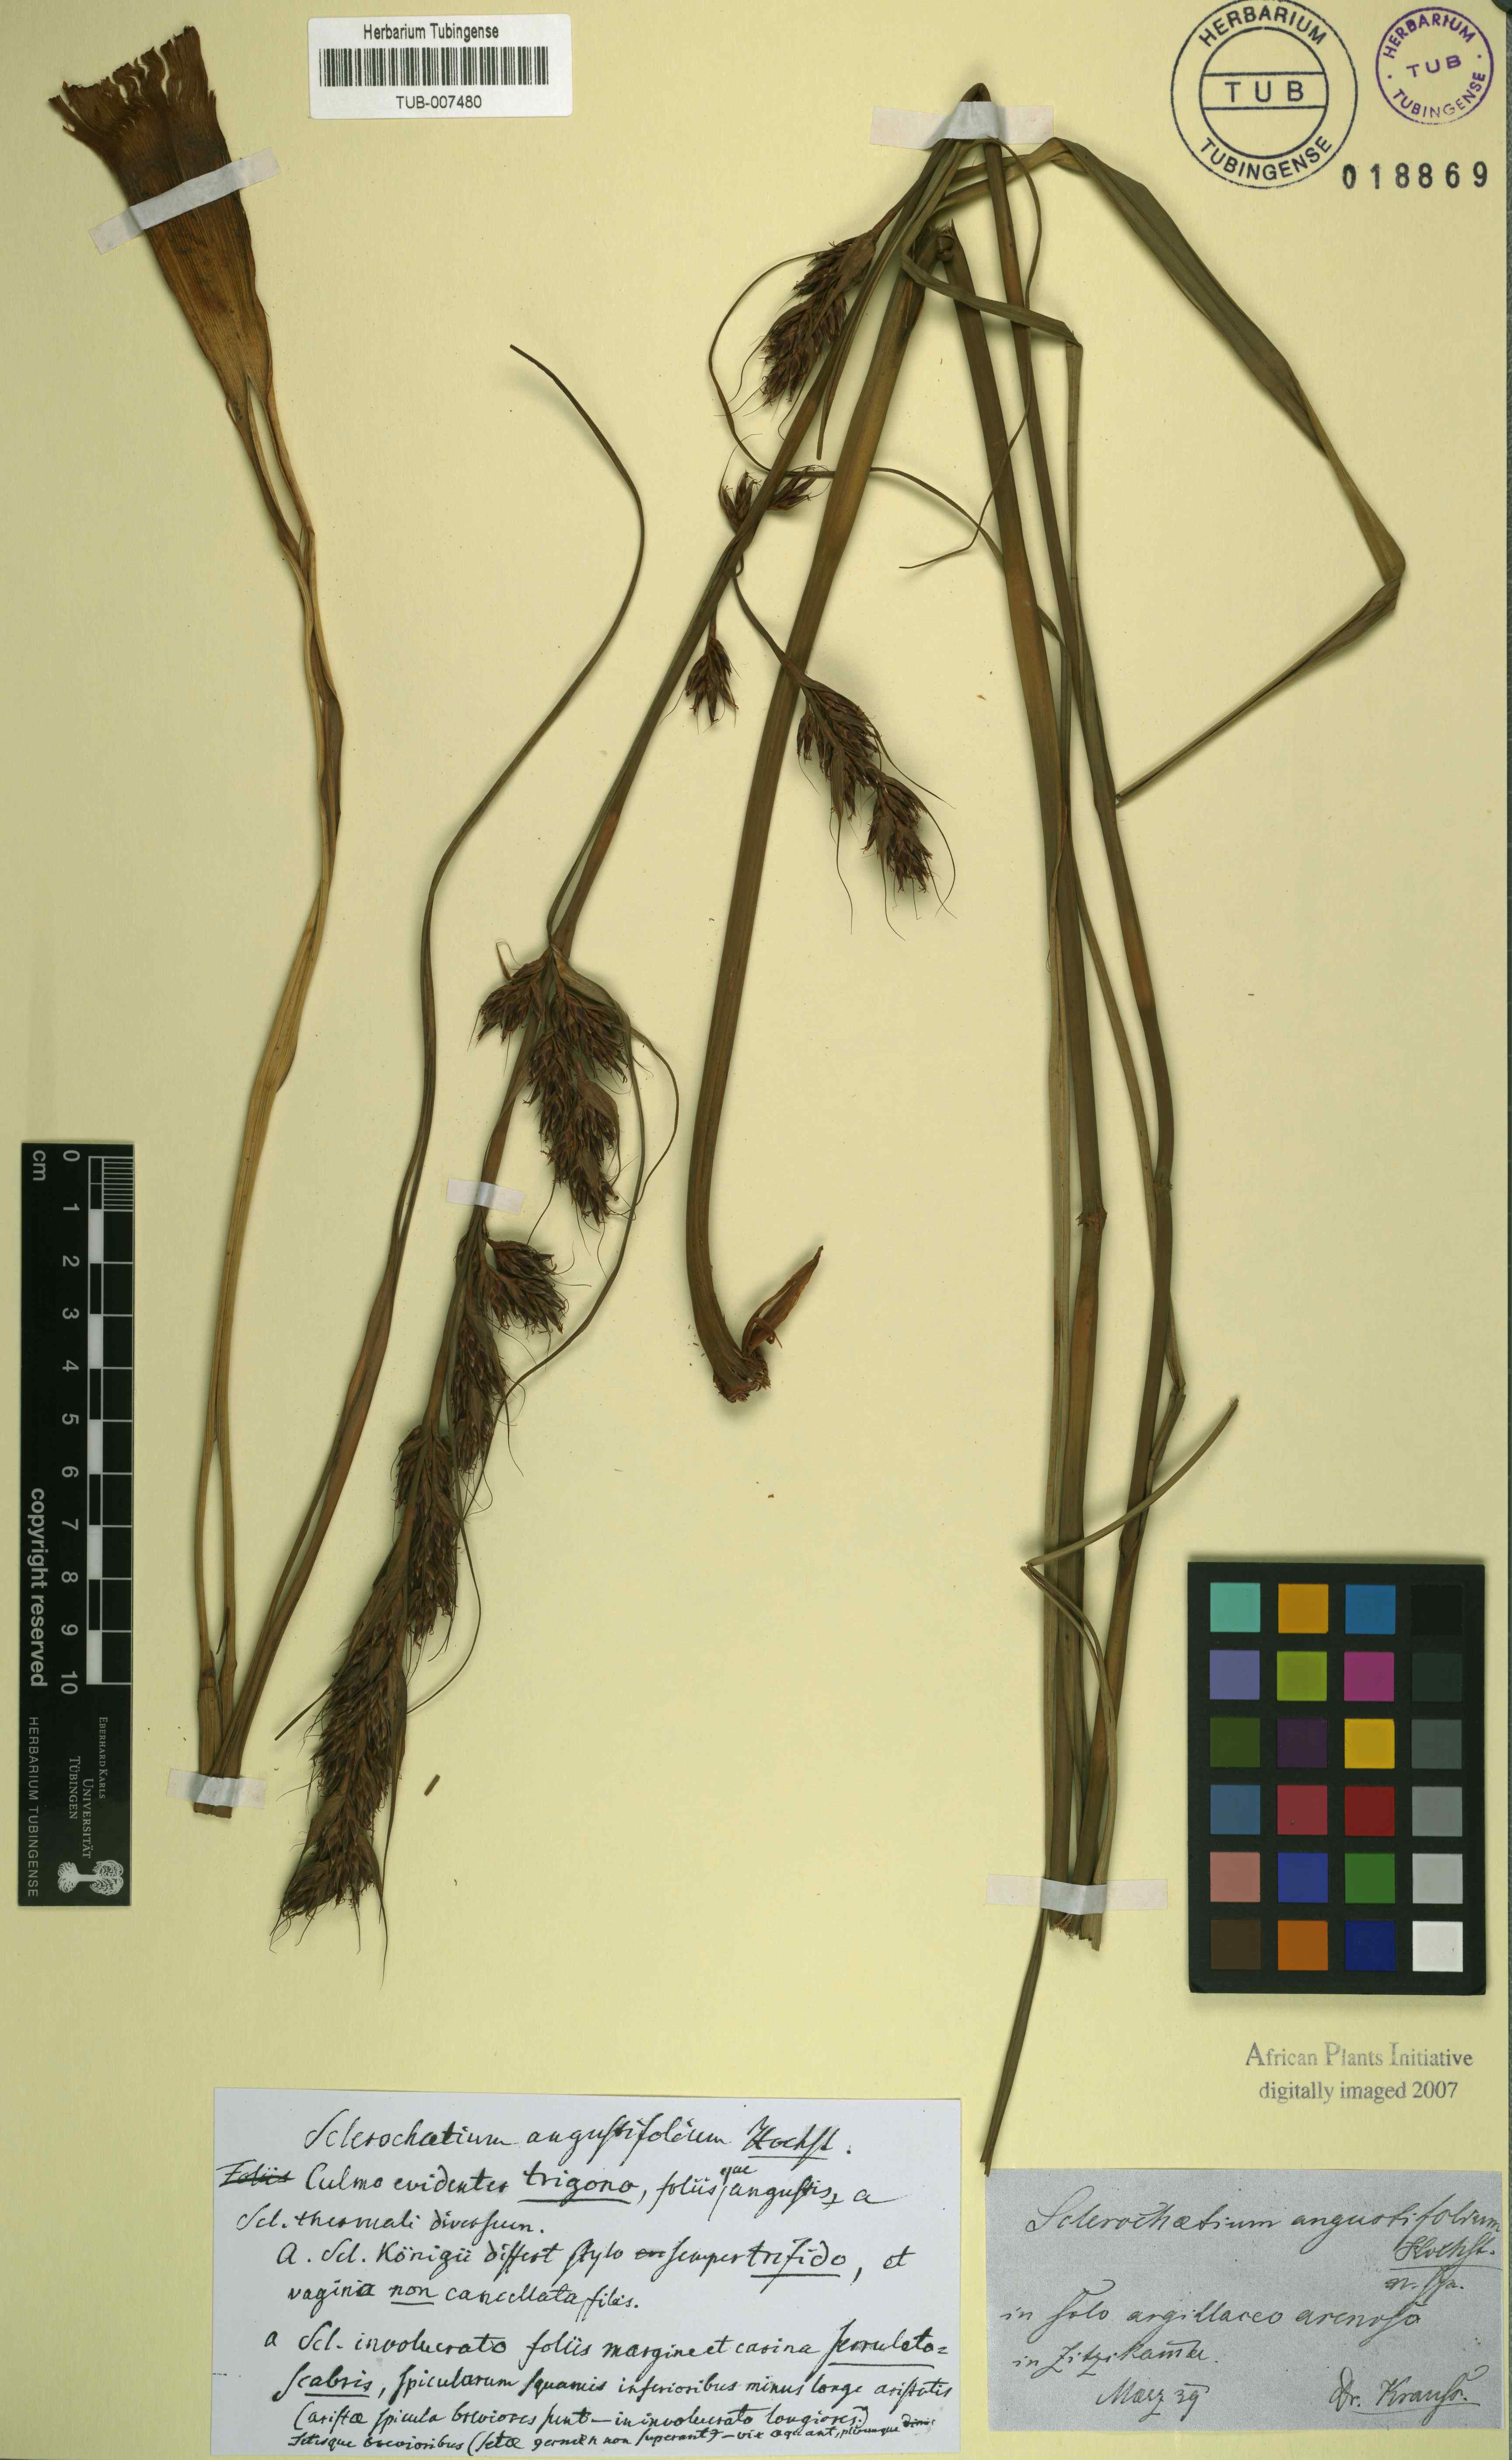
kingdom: Plantae
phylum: Tracheophyta
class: Liliopsida
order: Poales
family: Cyperaceae
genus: Tetraria
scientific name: Tetraria bromoides
